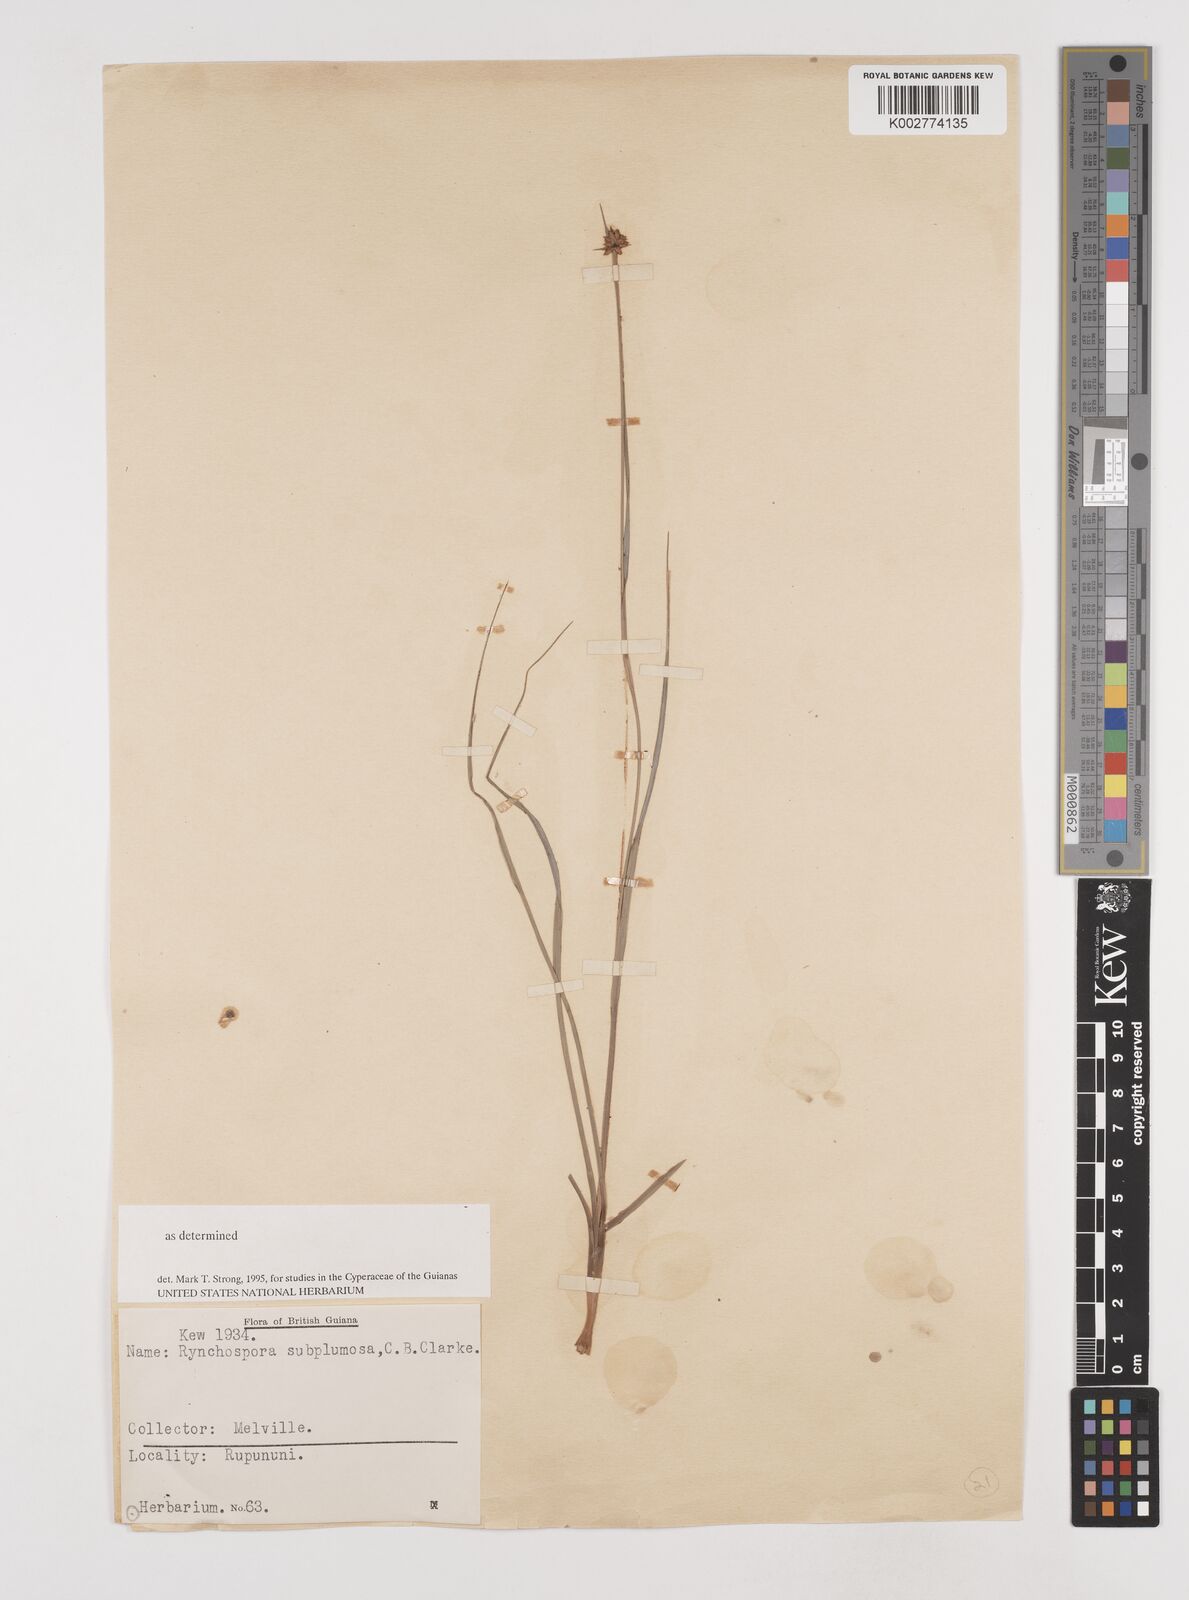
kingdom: Plantae
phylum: Tracheophyta
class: Liliopsida
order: Poales
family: Cyperaceae
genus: Rhynchospora
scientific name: Rhynchospora subplumosa
